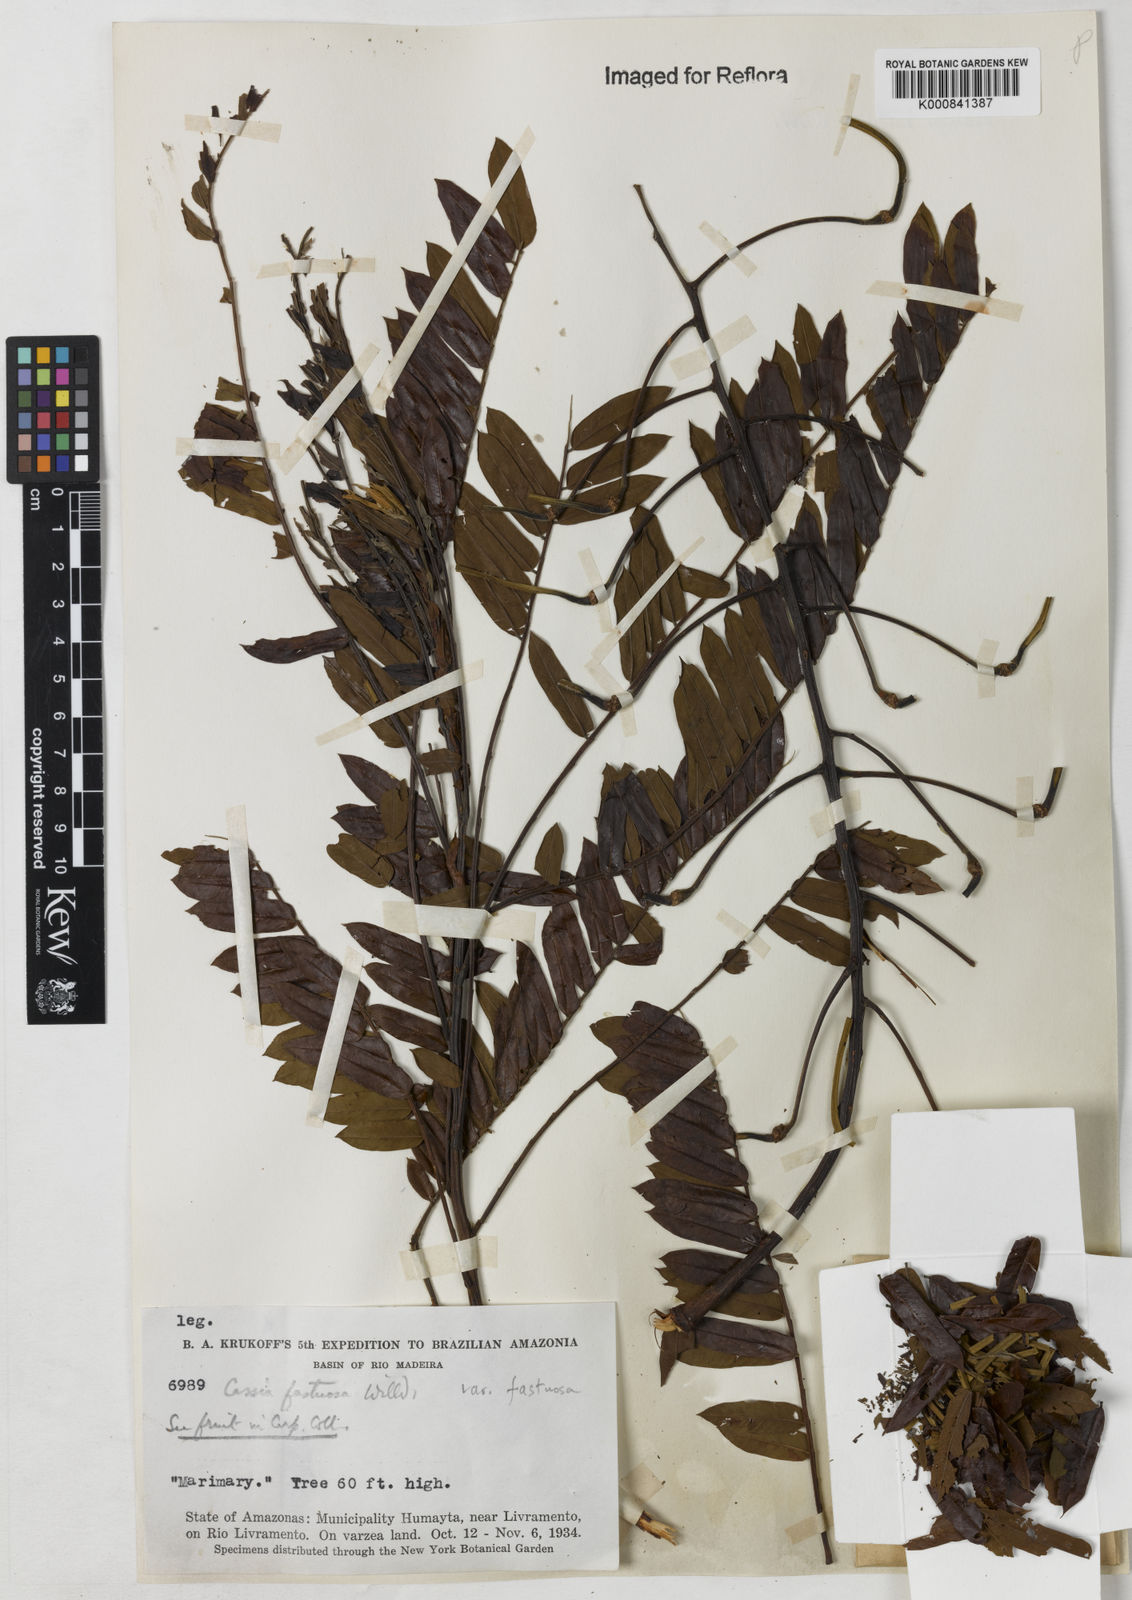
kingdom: Plantae
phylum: Tracheophyta
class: Magnoliopsida
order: Fabales
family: Fabaceae
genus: Cassia
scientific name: Cassia
